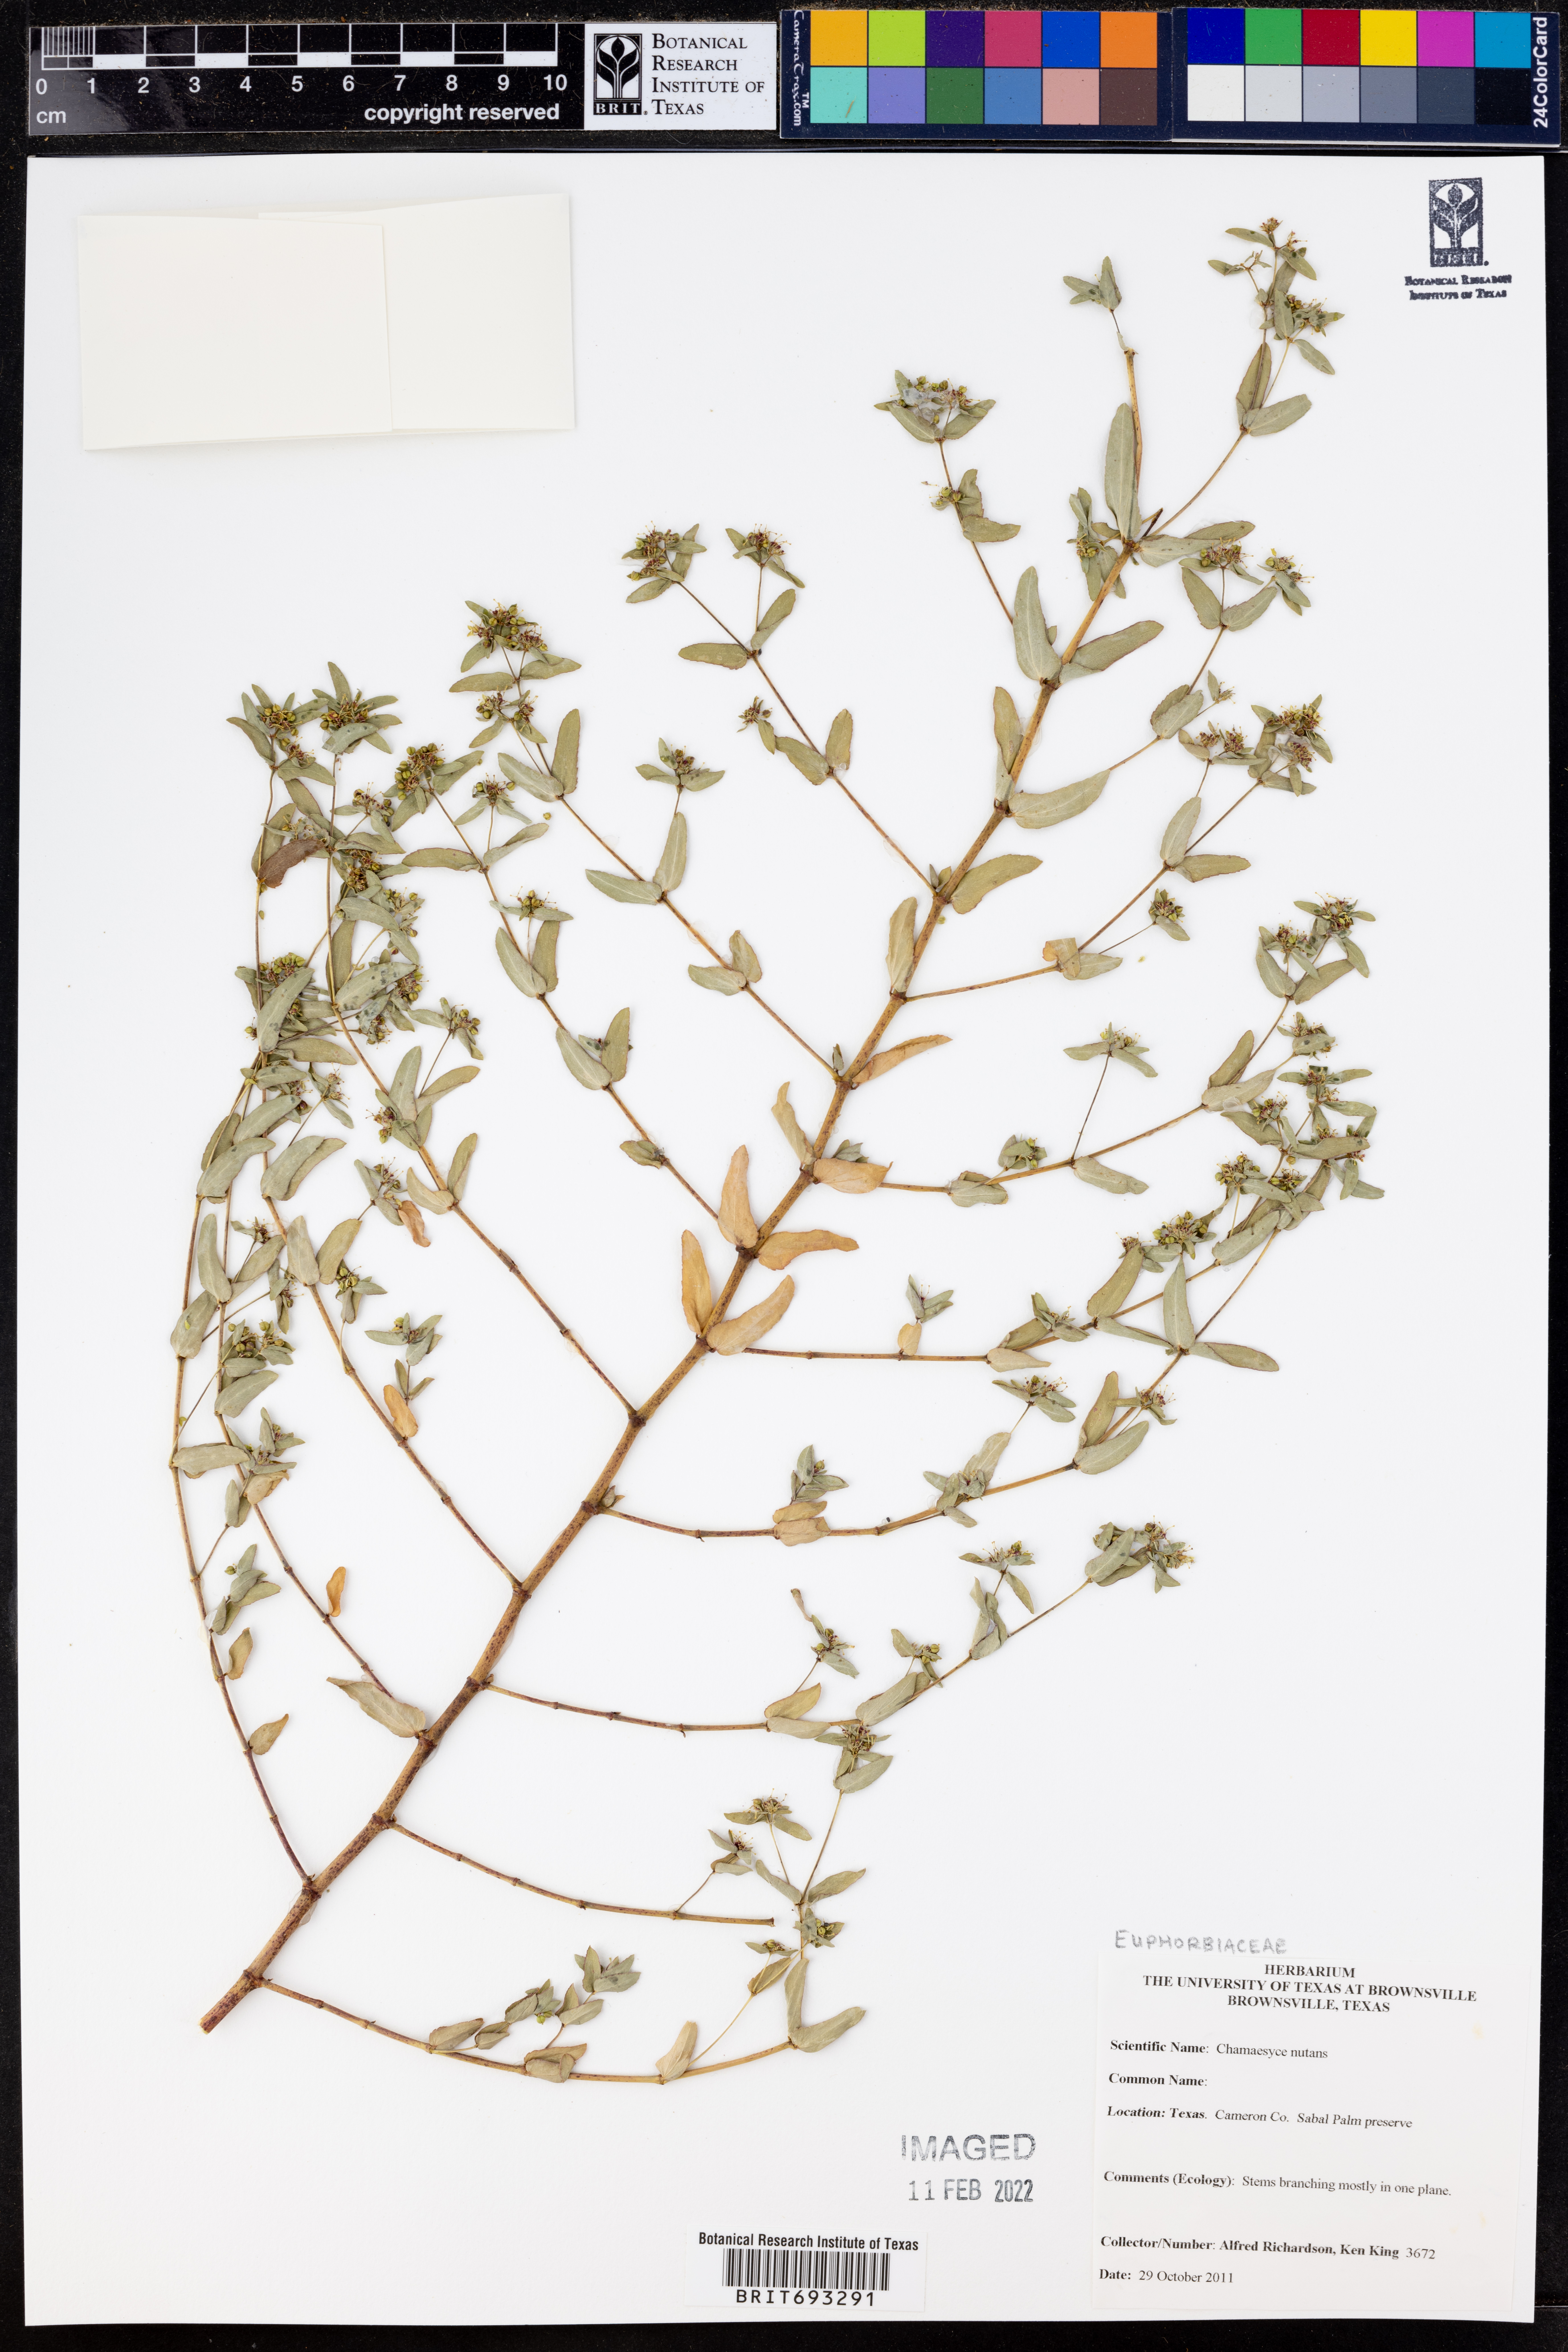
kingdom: Plantae
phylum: Tracheophyta
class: Magnoliopsida
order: Malpighiales
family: Euphorbiaceae
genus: Euphorbia
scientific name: Euphorbia nutans
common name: Eyebane
